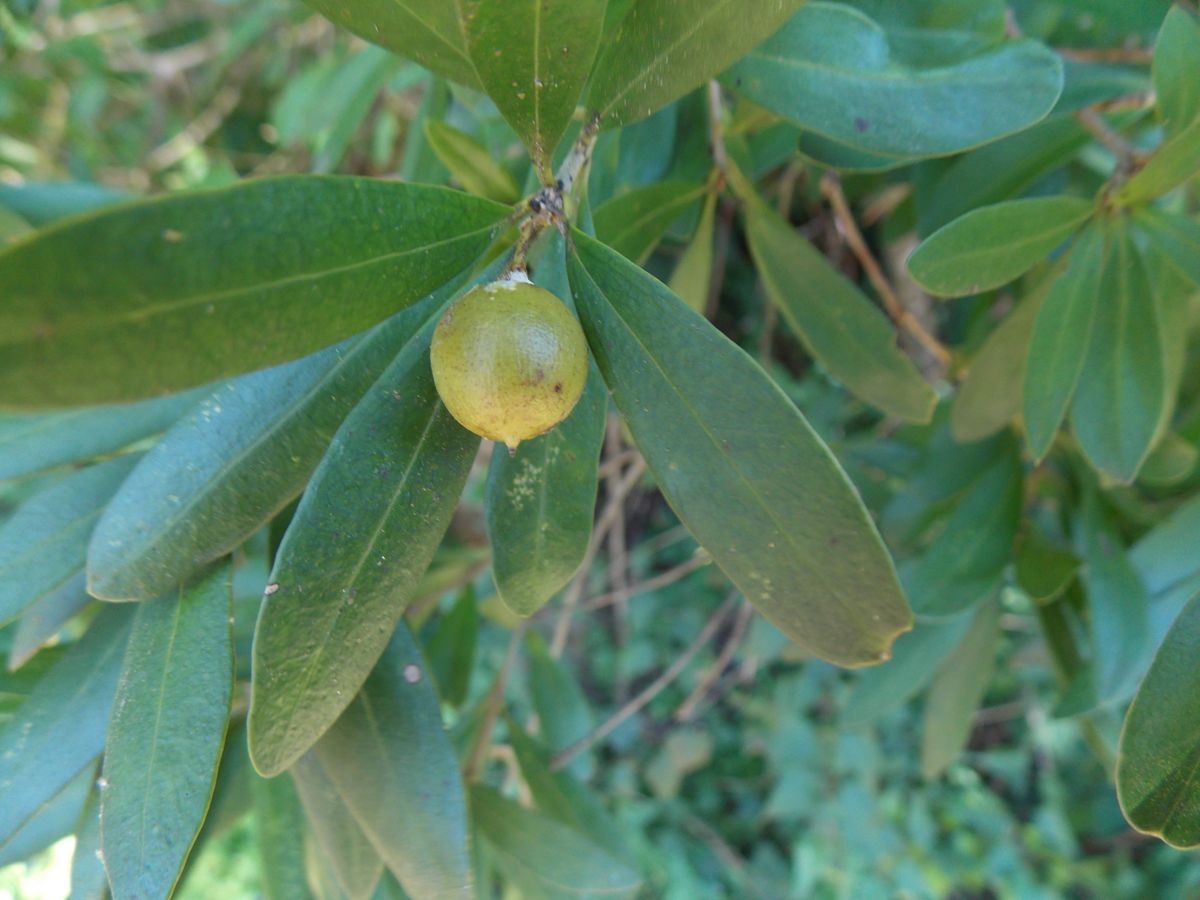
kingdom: Plantae
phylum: Tracheophyta
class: Magnoliopsida
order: Ericales
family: Primulaceae
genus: Bonellia
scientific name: Bonellia longifolia
